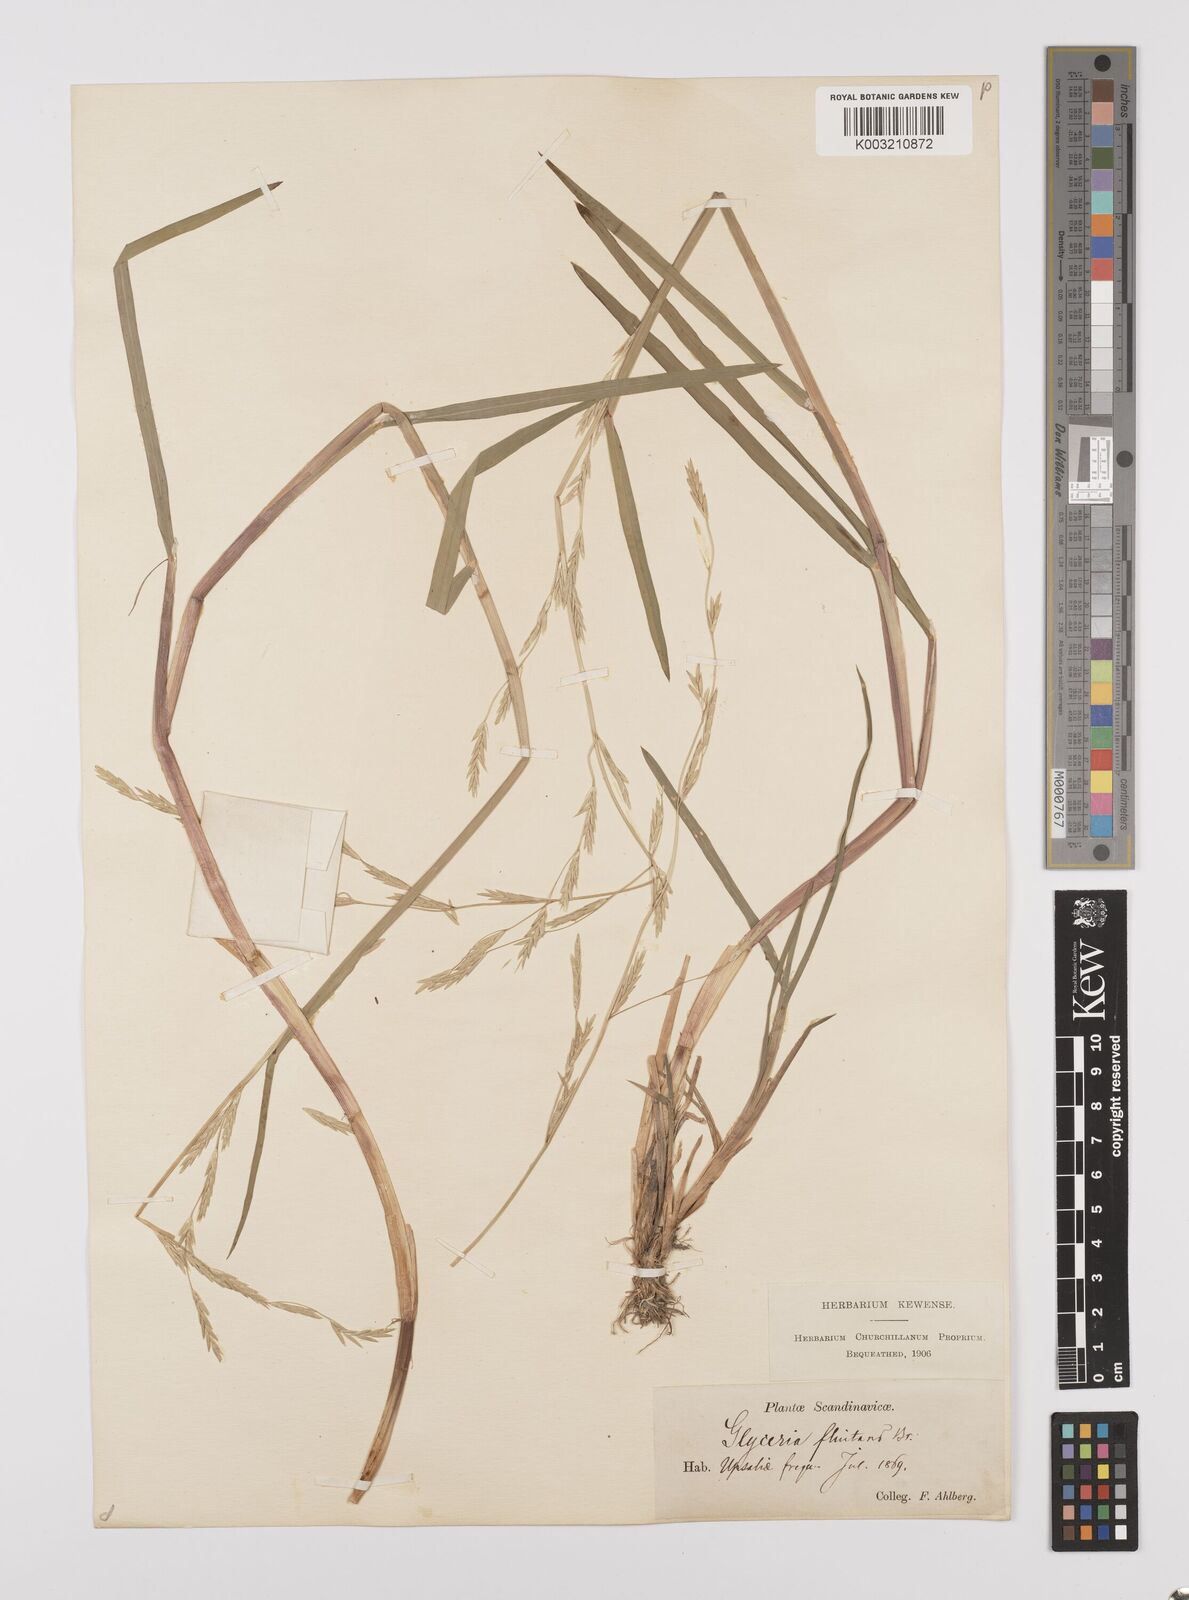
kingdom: Plantae
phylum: Tracheophyta
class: Liliopsida
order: Poales
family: Poaceae
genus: Glyceria
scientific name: Glyceria fluitans
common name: Floating sweet-grass
